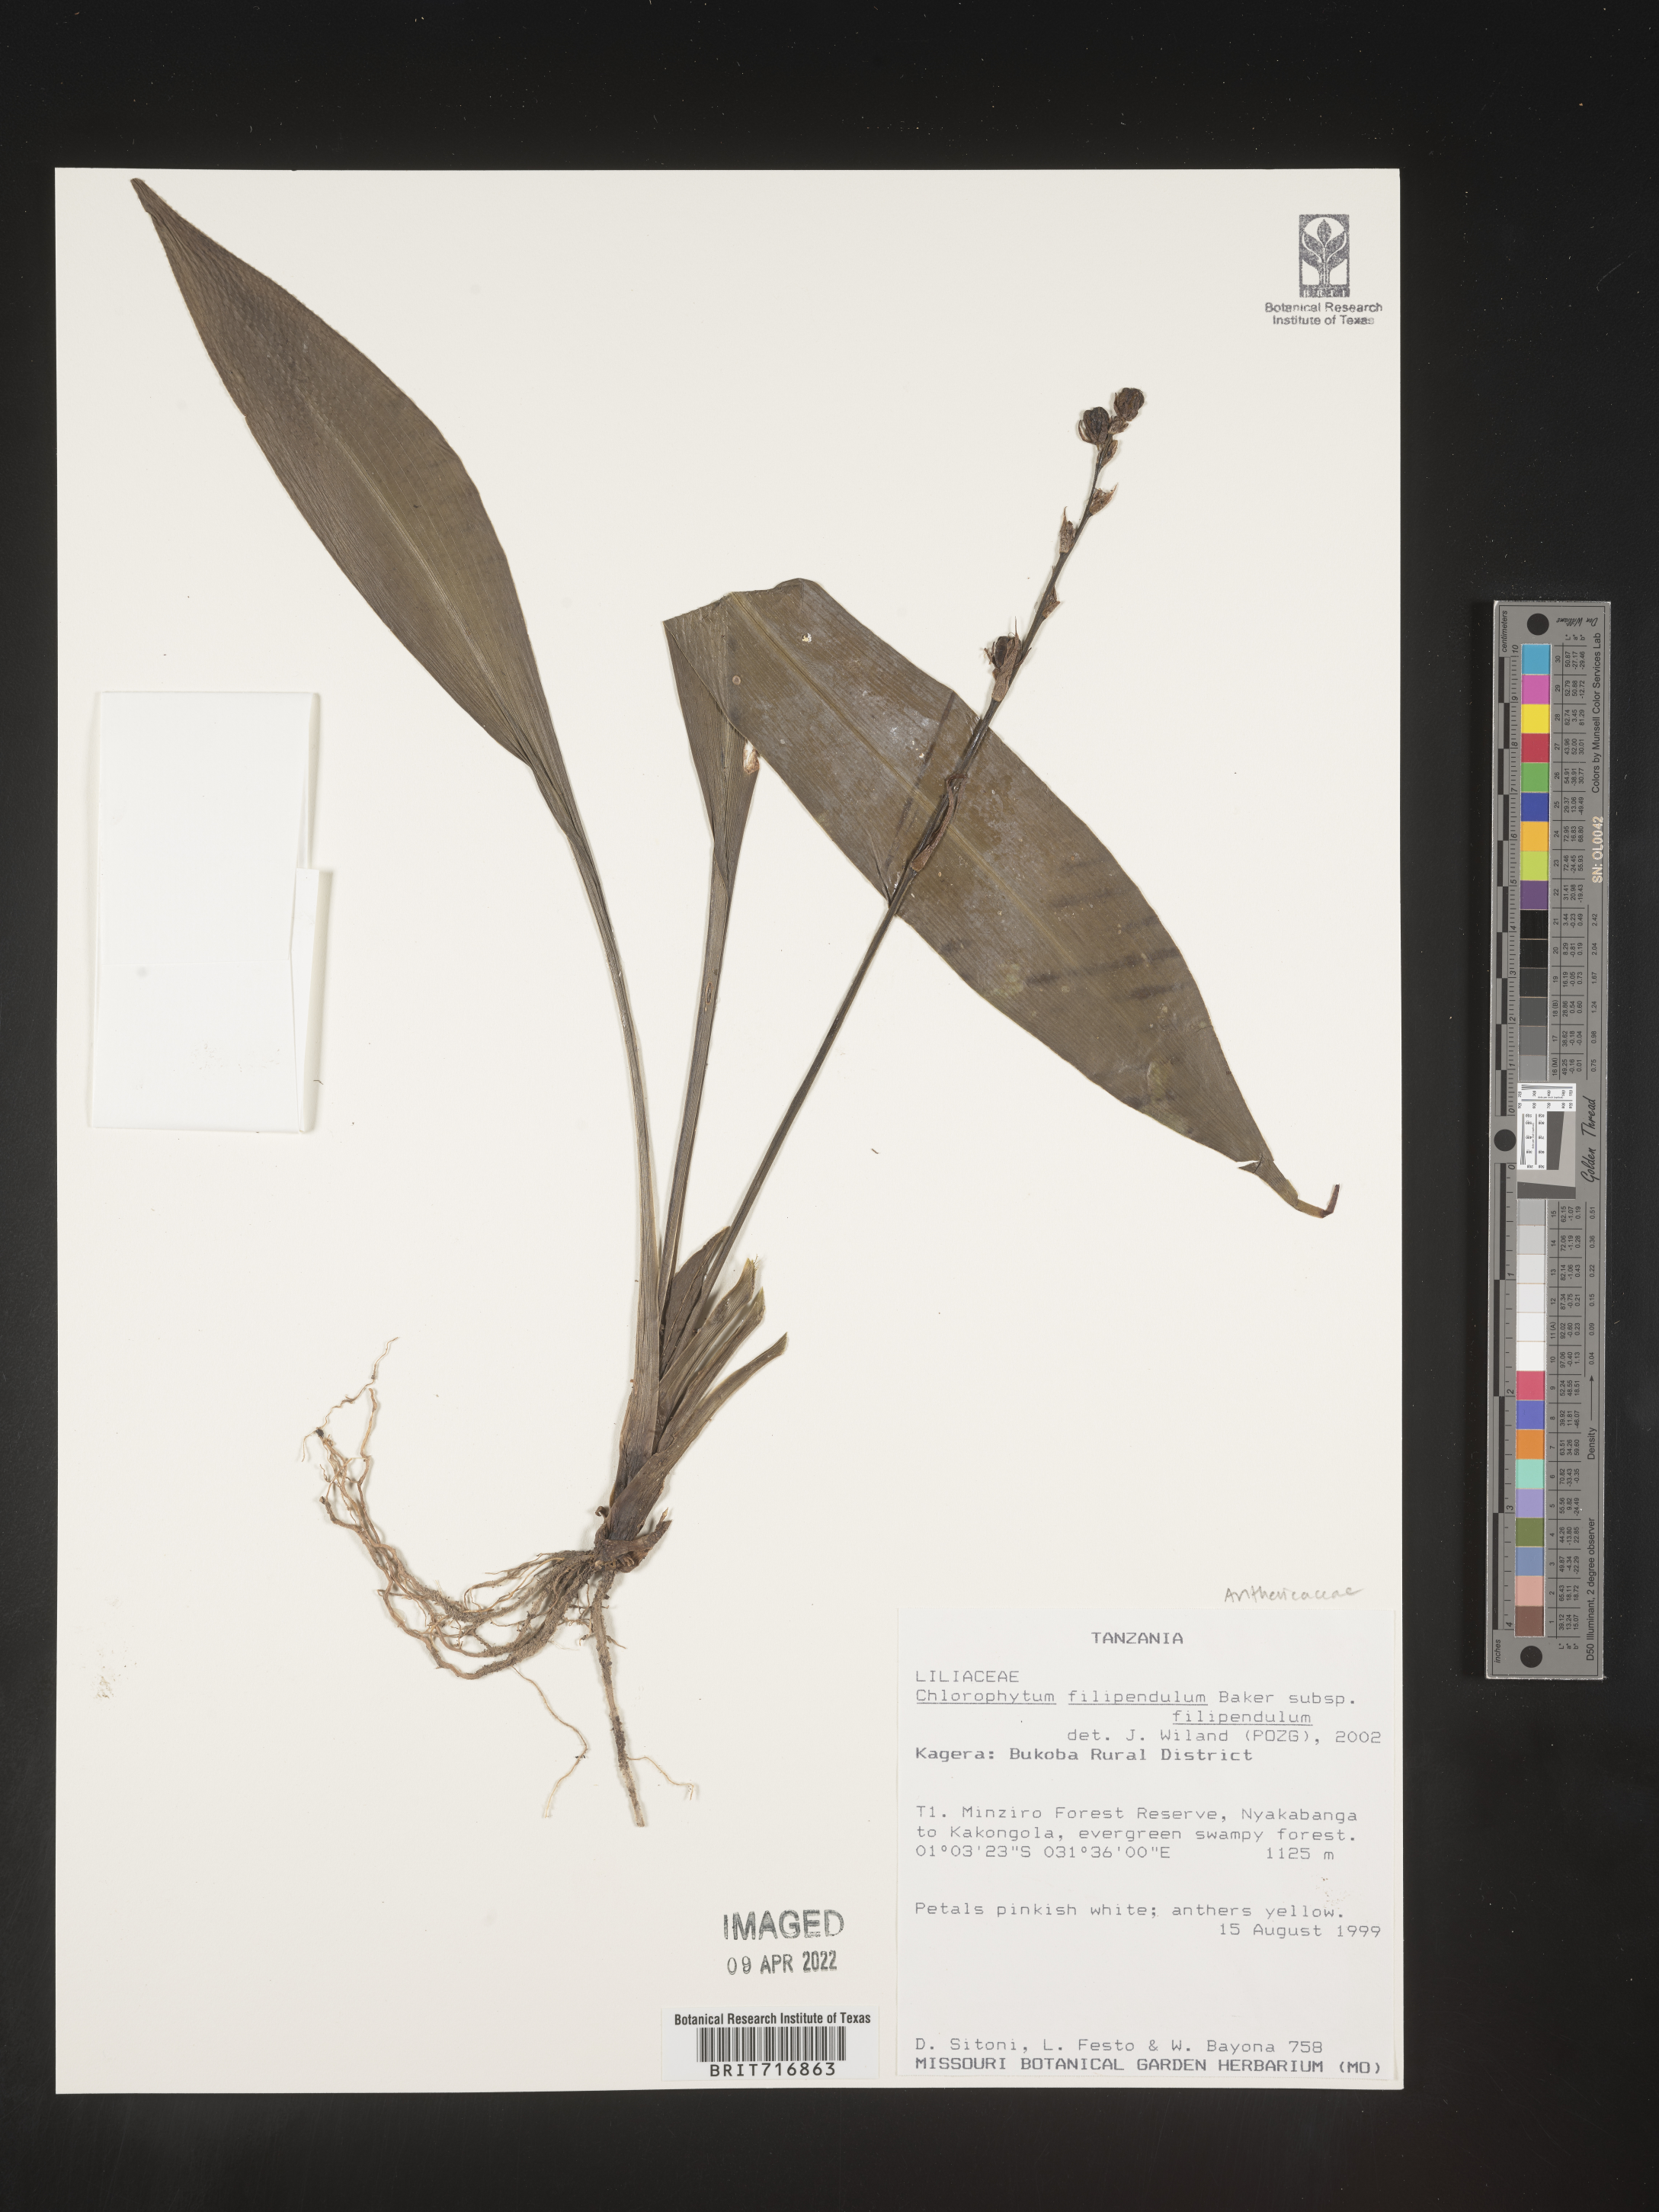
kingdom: Plantae
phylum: Tracheophyta
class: Liliopsida
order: Asparagales
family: Asparagaceae
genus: Chlorophytum
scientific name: Chlorophytum
